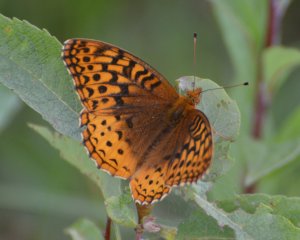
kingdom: Animalia
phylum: Arthropoda
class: Insecta
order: Lepidoptera
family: Nymphalidae
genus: Speyeria
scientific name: Speyeria cybele
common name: Great Spangled Fritillary
